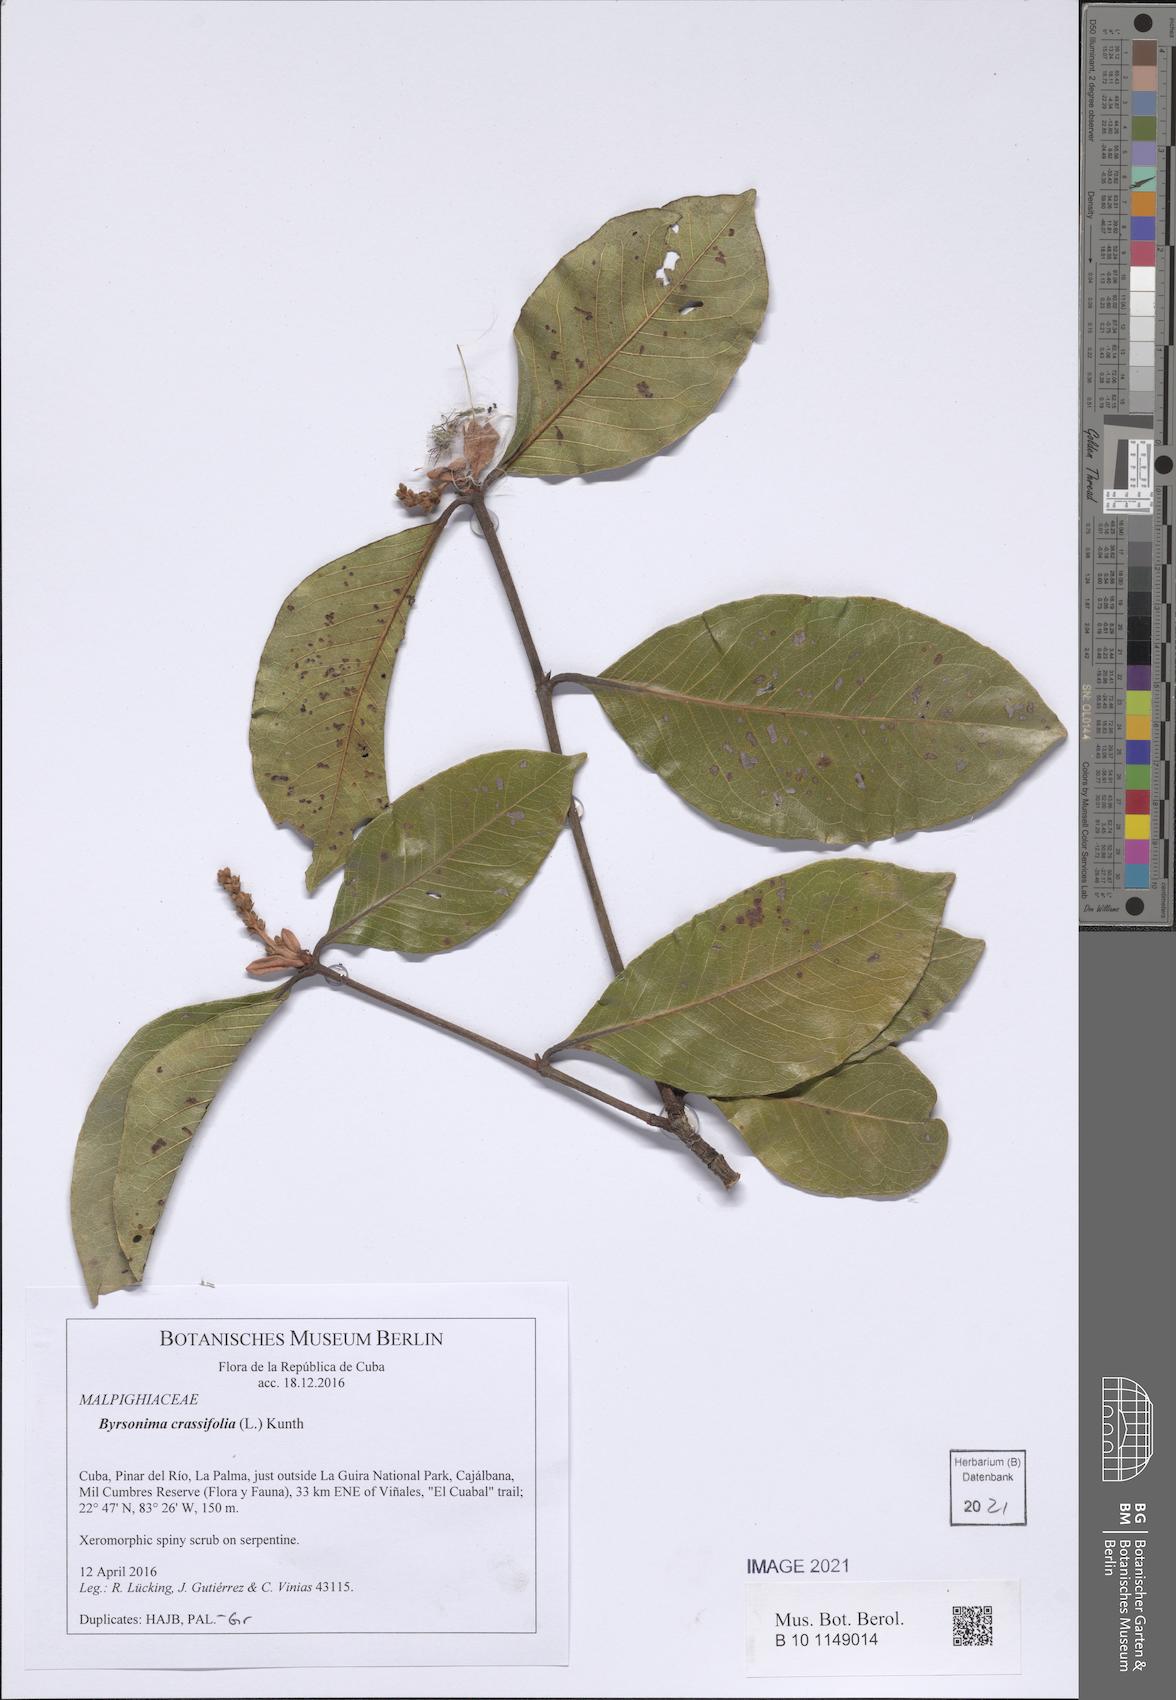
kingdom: Plantae
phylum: Tracheophyta
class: Magnoliopsida
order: Malpighiales
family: Malpighiaceae
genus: Byrsonima
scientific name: Byrsonima crassifolia
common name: Golden spoon
